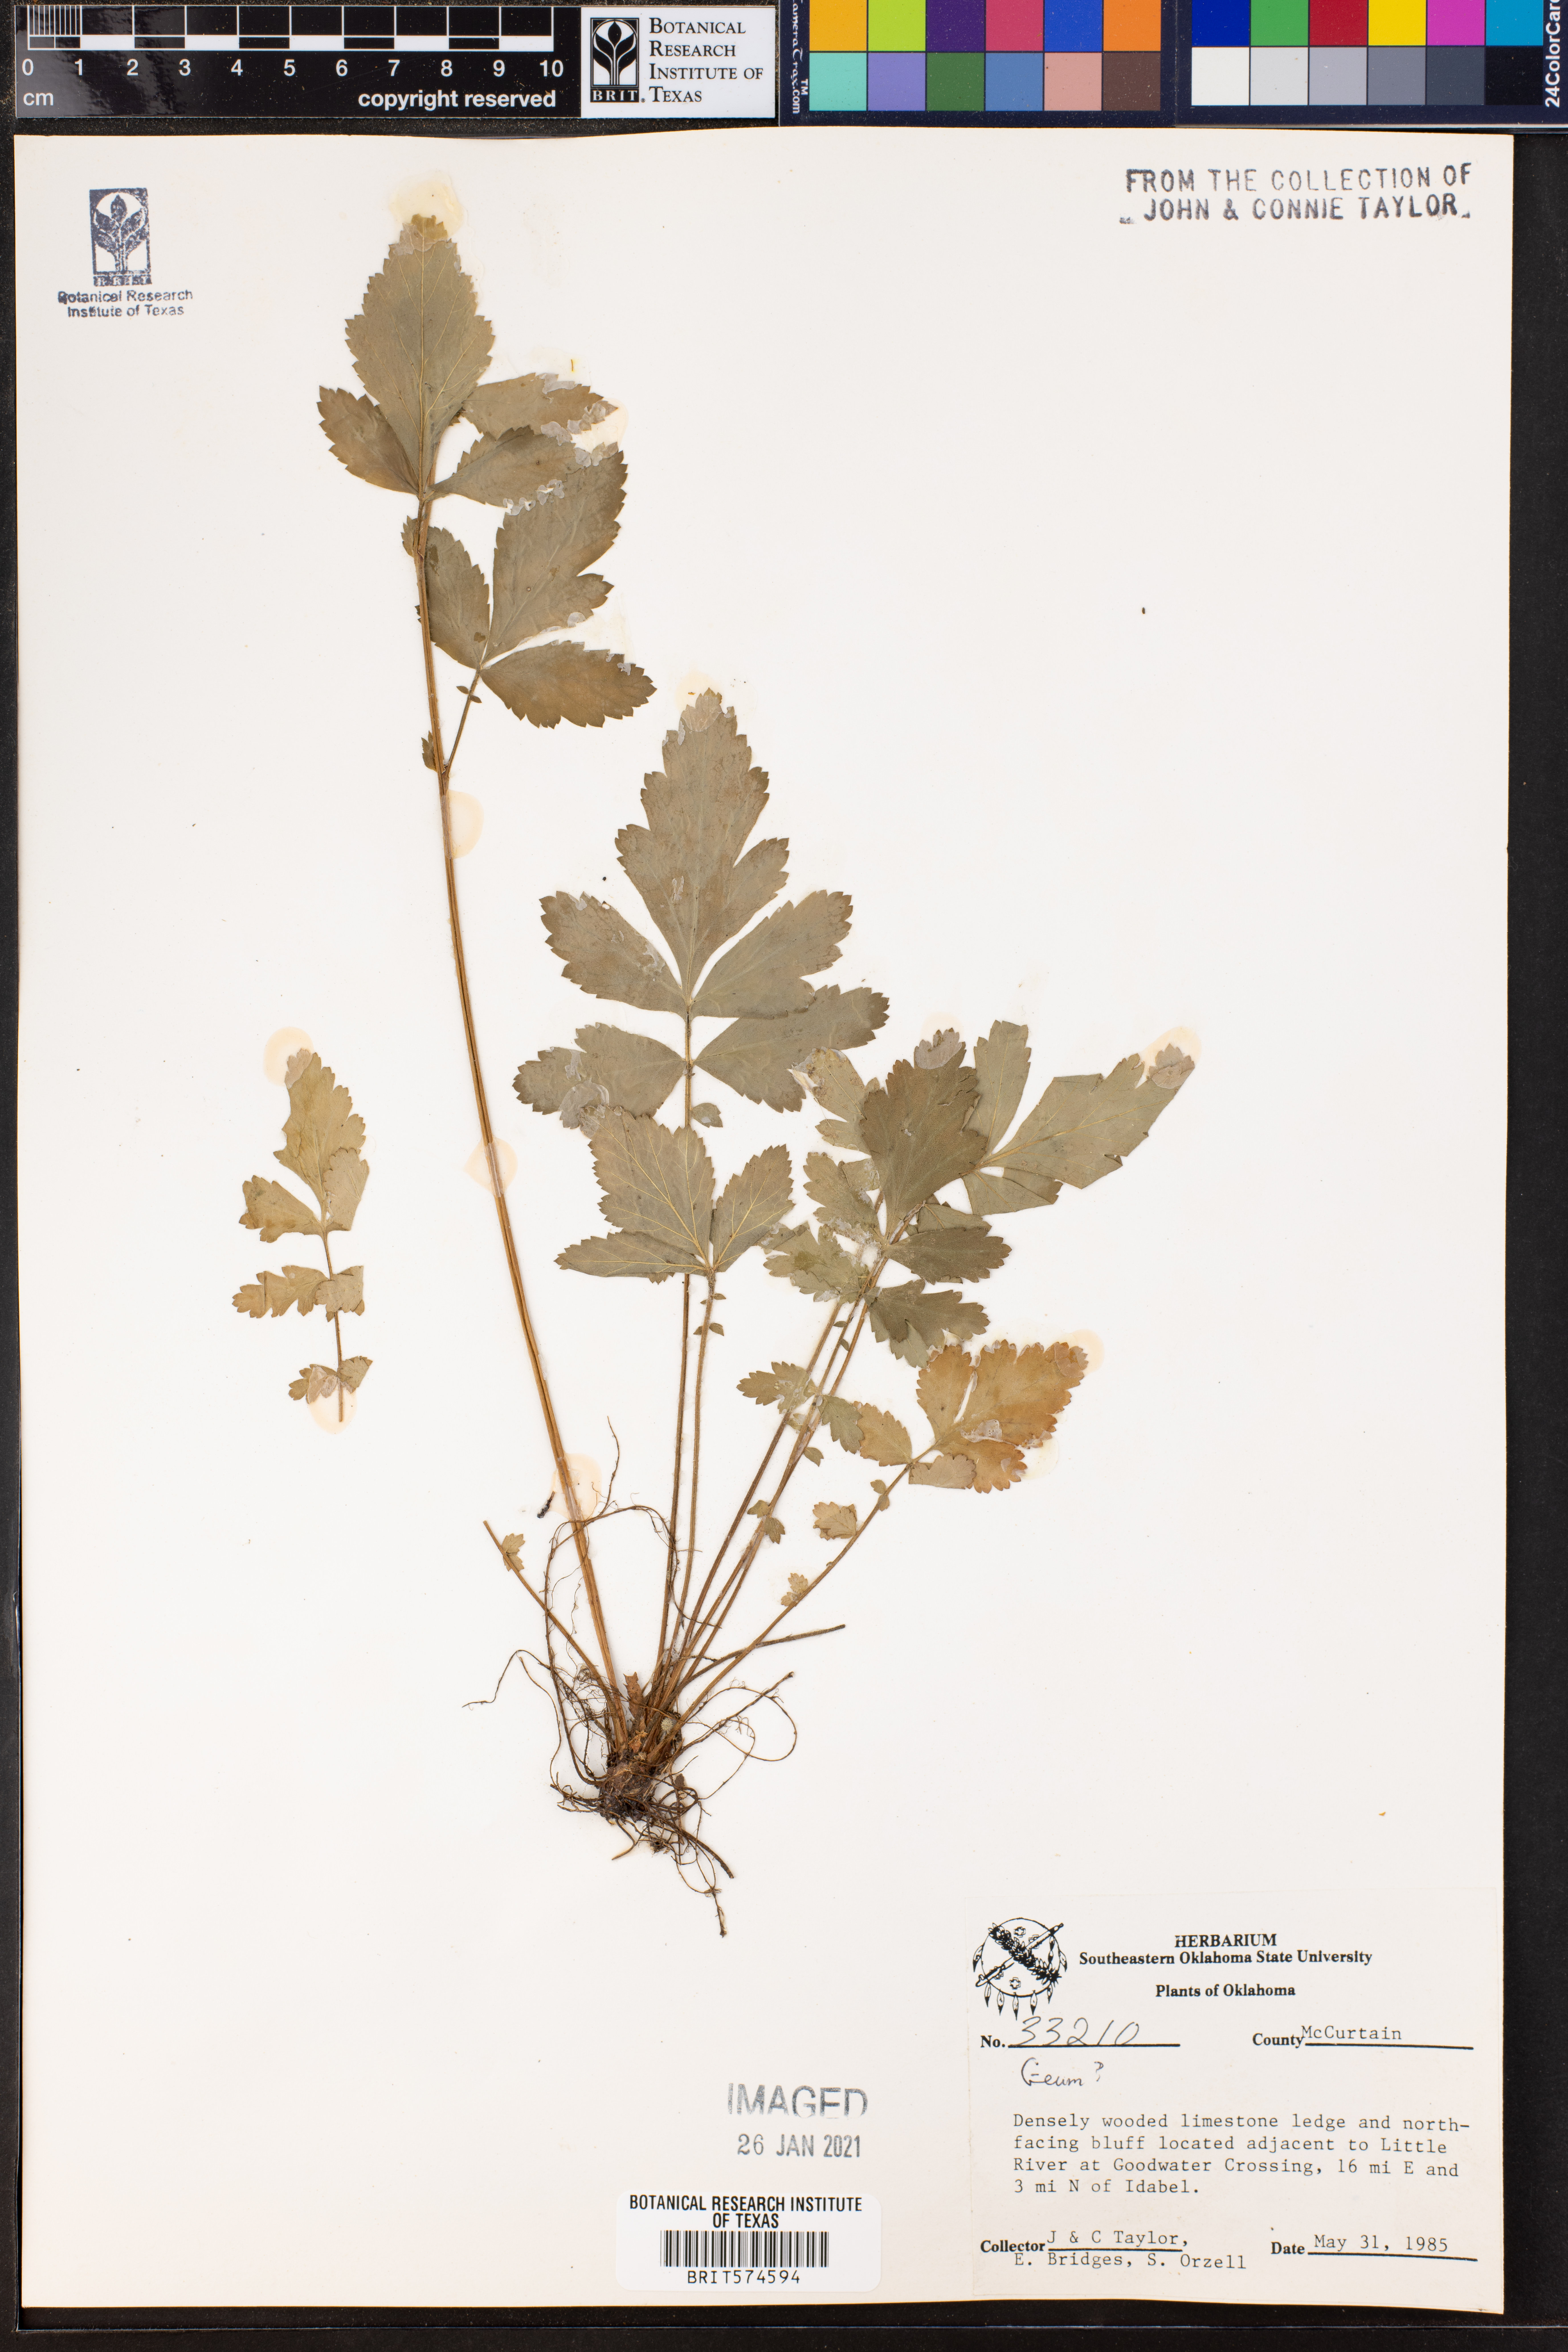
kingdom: Plantae
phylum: Tracheophyta
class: Magnoliopsida
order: Rosales
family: Rosaceae
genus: Geum
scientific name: Geum
